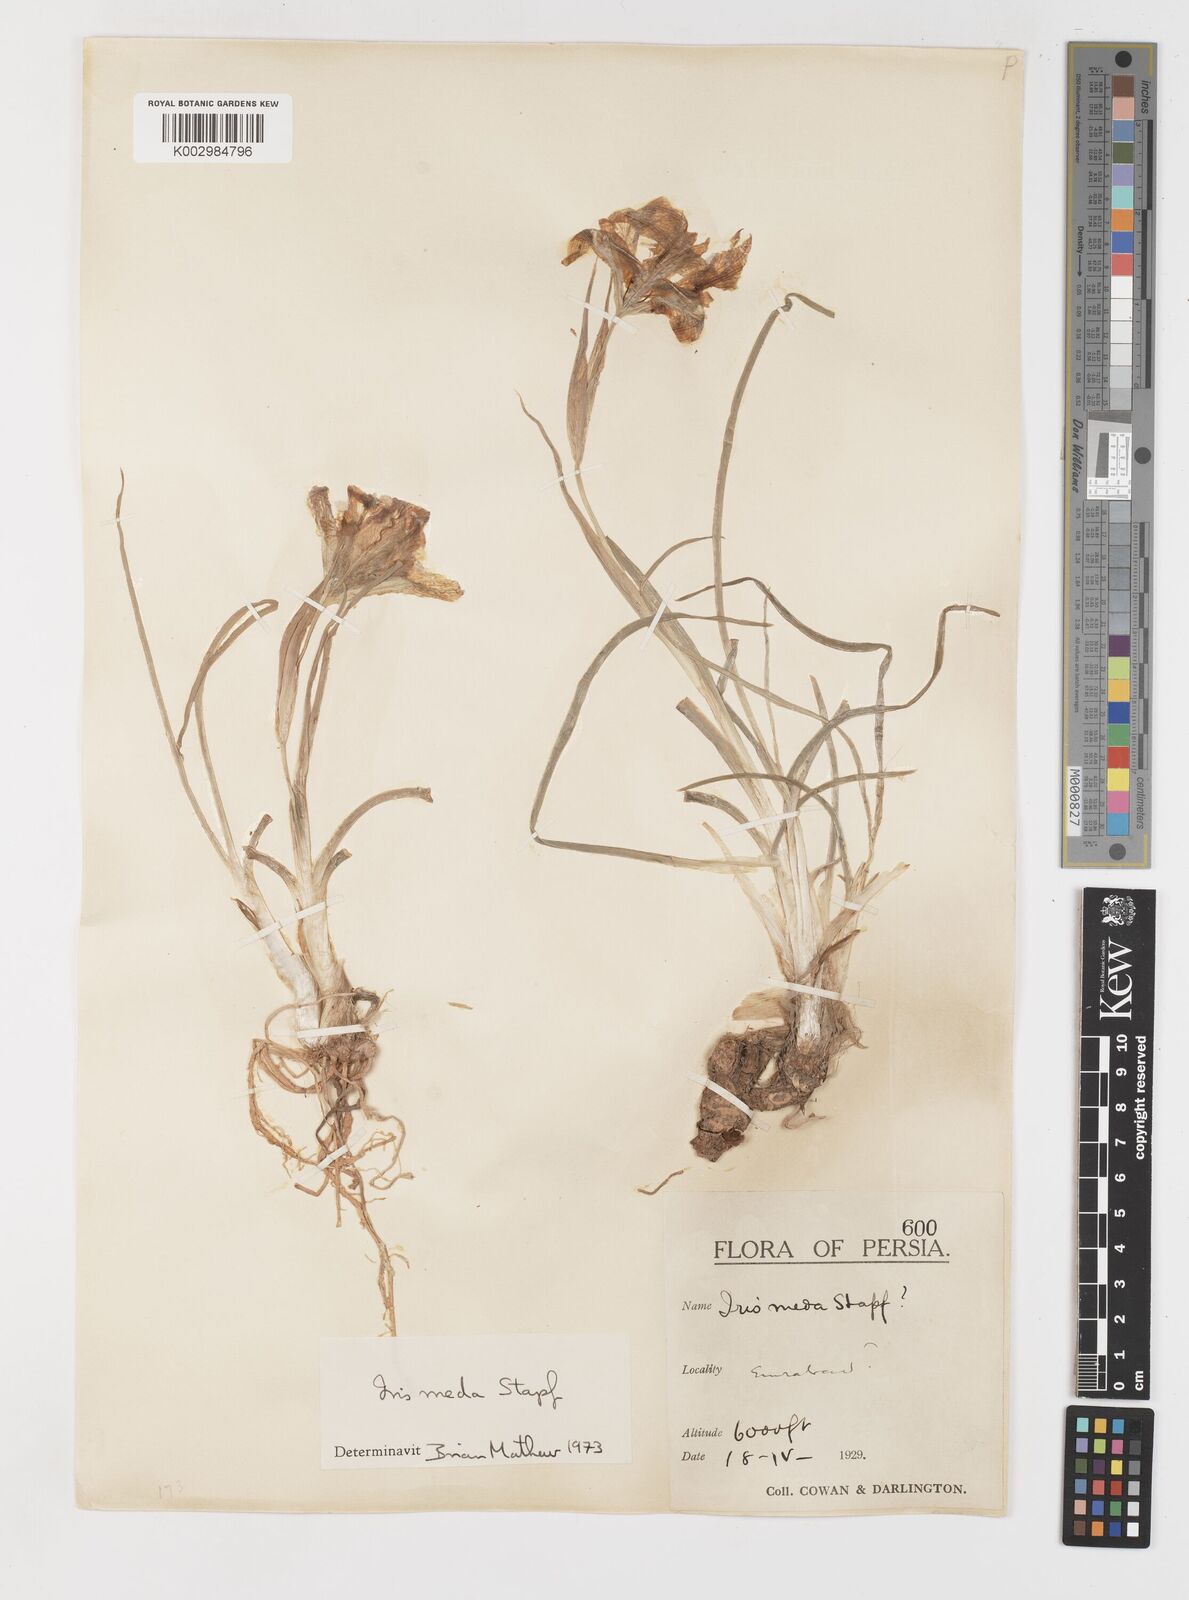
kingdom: Plantae
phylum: Tracheophyta
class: Liliopsida
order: Asparagales
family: Iridaceae
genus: Iris
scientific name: Iris meda
